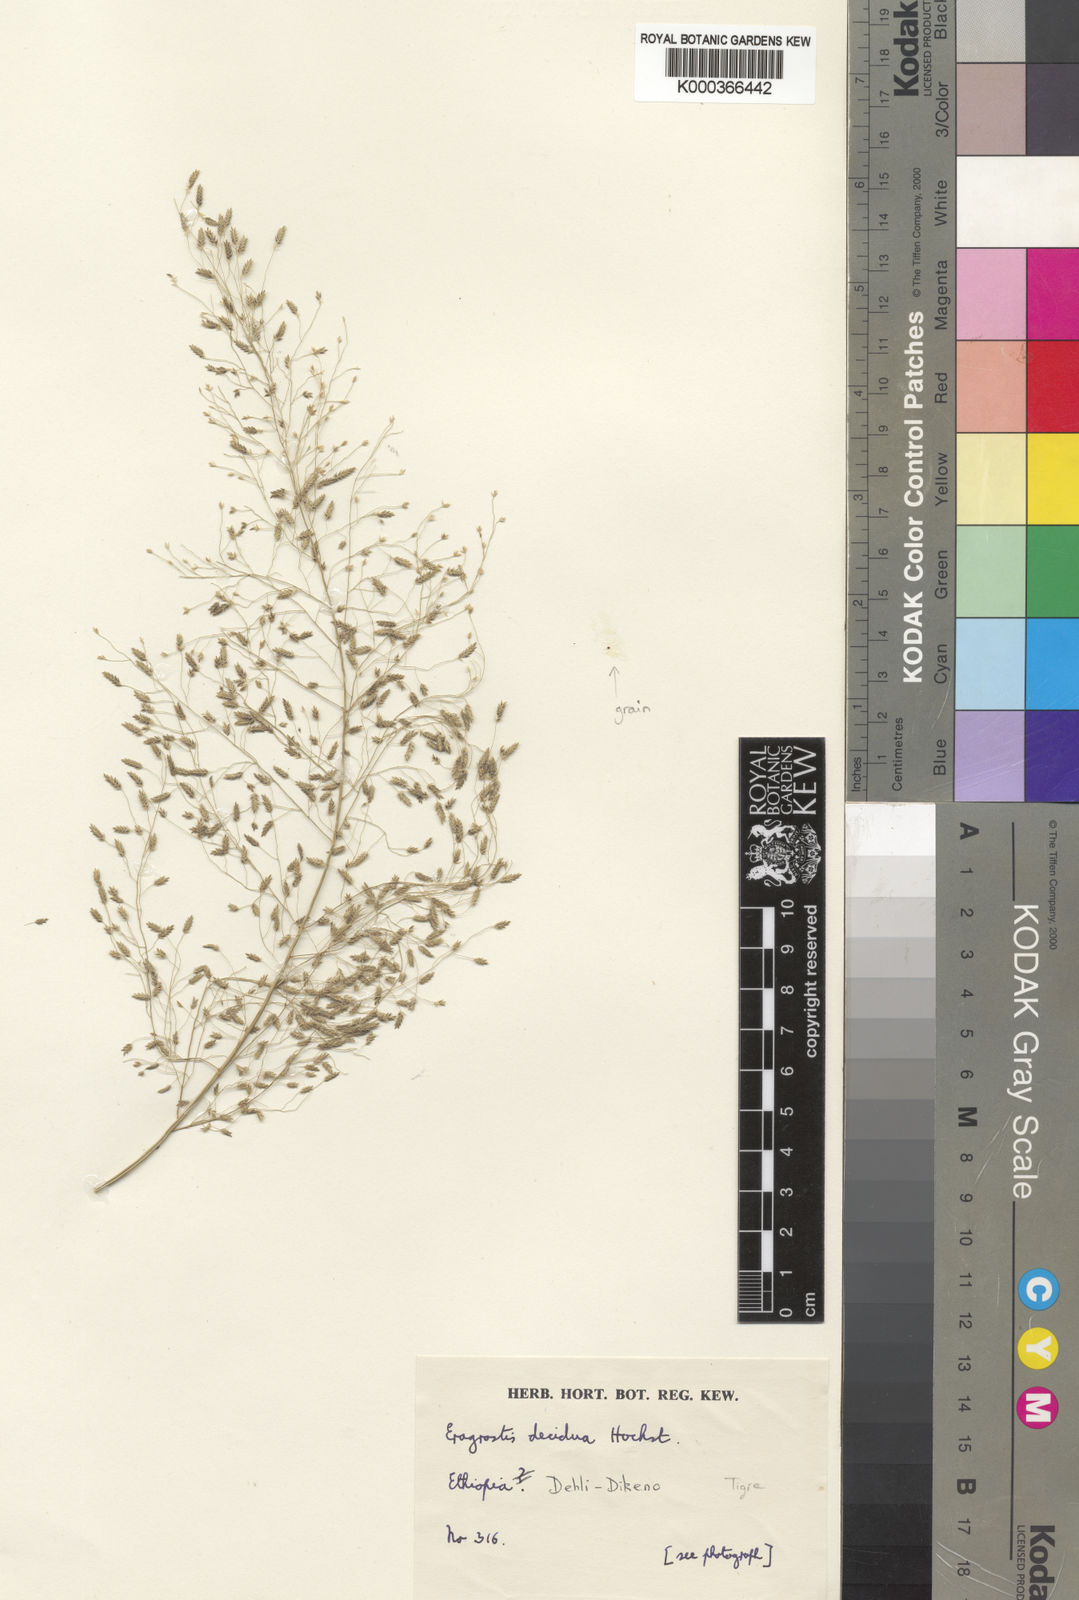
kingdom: Plantae
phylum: Tracheophyta
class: Liliopsida
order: Poales
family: Poaceae
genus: Eragrostis
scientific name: Eragrostis macilenta
